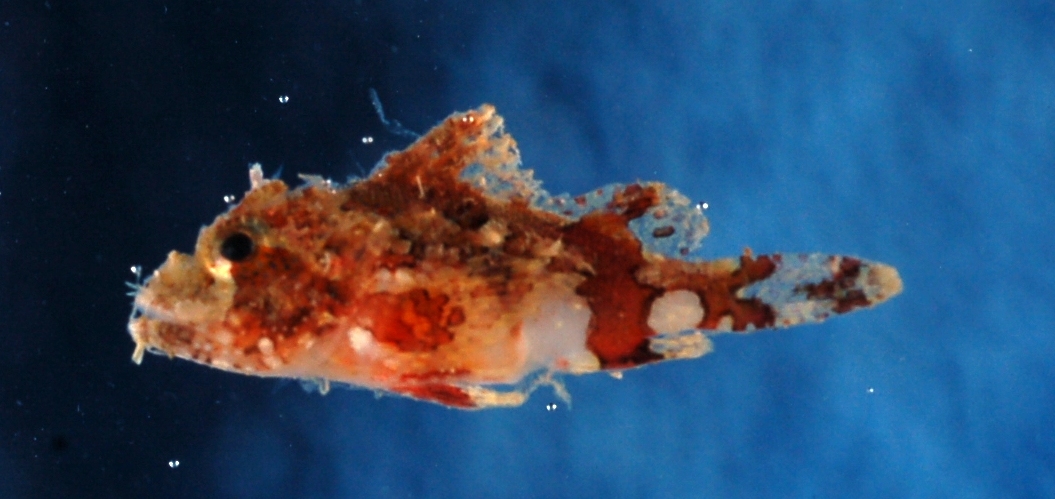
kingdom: Animalia
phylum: Chordata
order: Scorpaeniformes
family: Scorpaenidae
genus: Scorpaenopsis
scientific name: Scorpaenopsis oxycephala
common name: Smallscale scorpionfish
